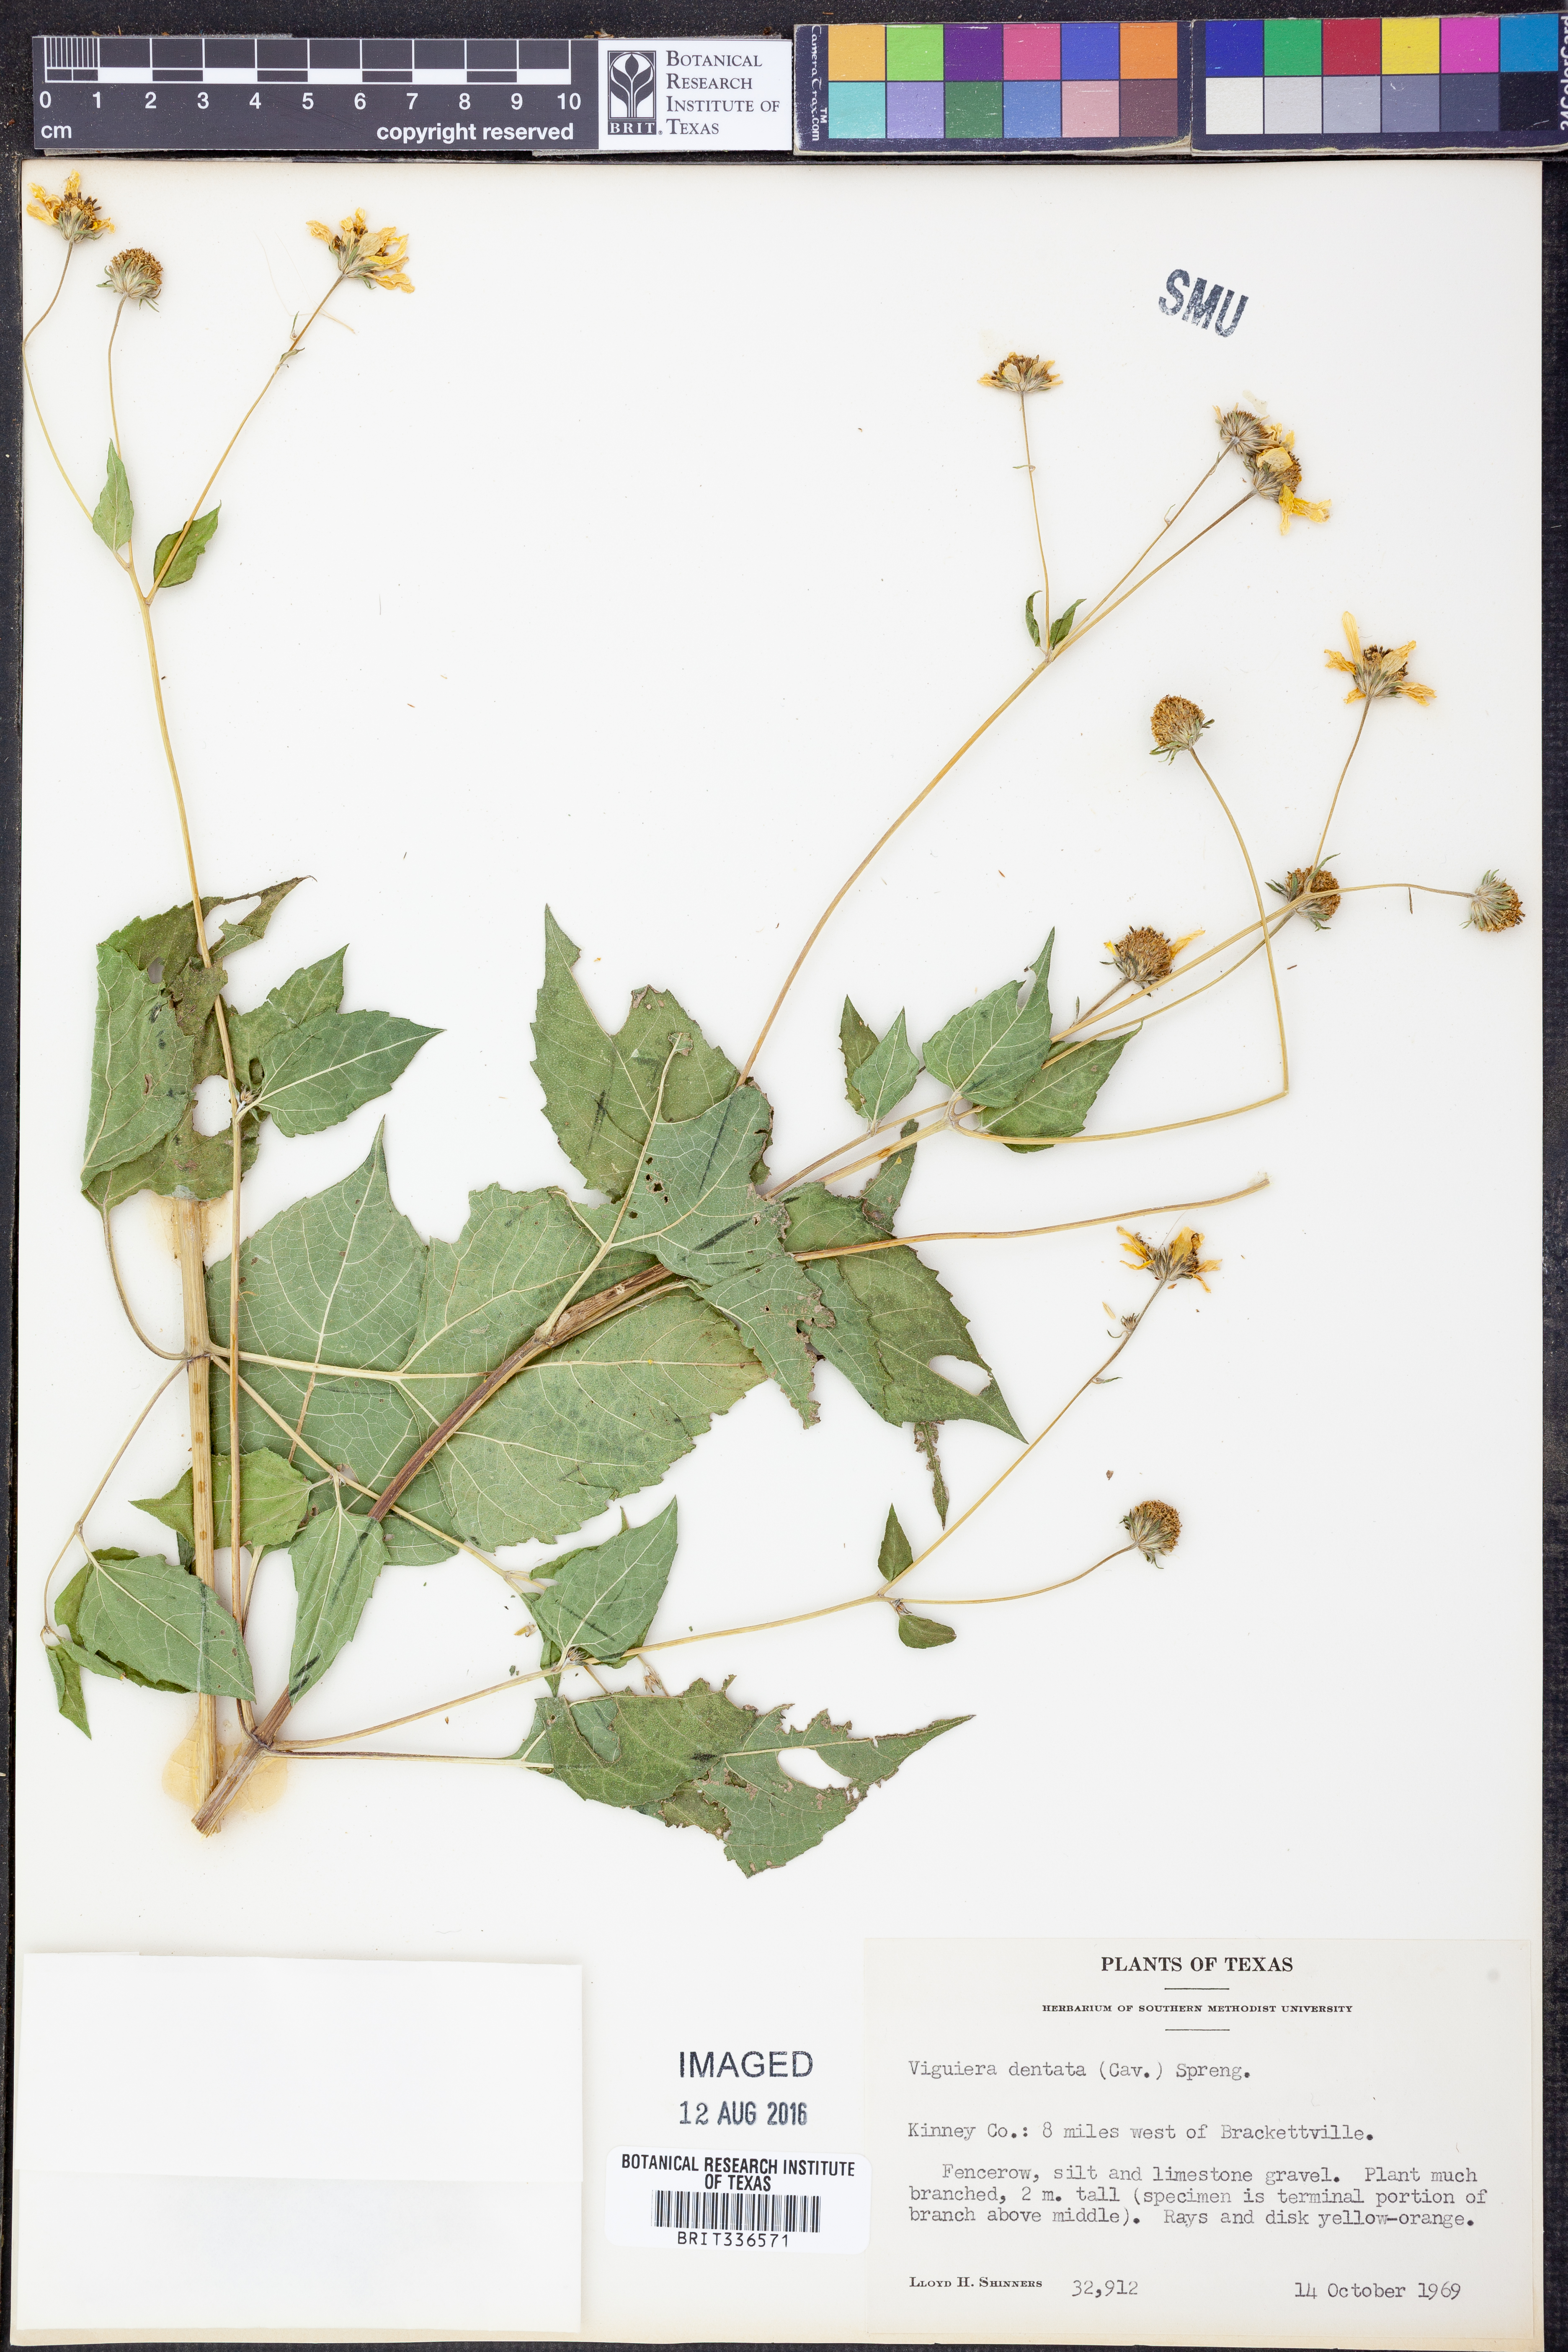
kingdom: Plantae
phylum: Tracheophyta
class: Magnoliopsida
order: Asterales
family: Asteraceae
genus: Viguiera
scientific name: Viguiera dentata
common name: Toothleaf
